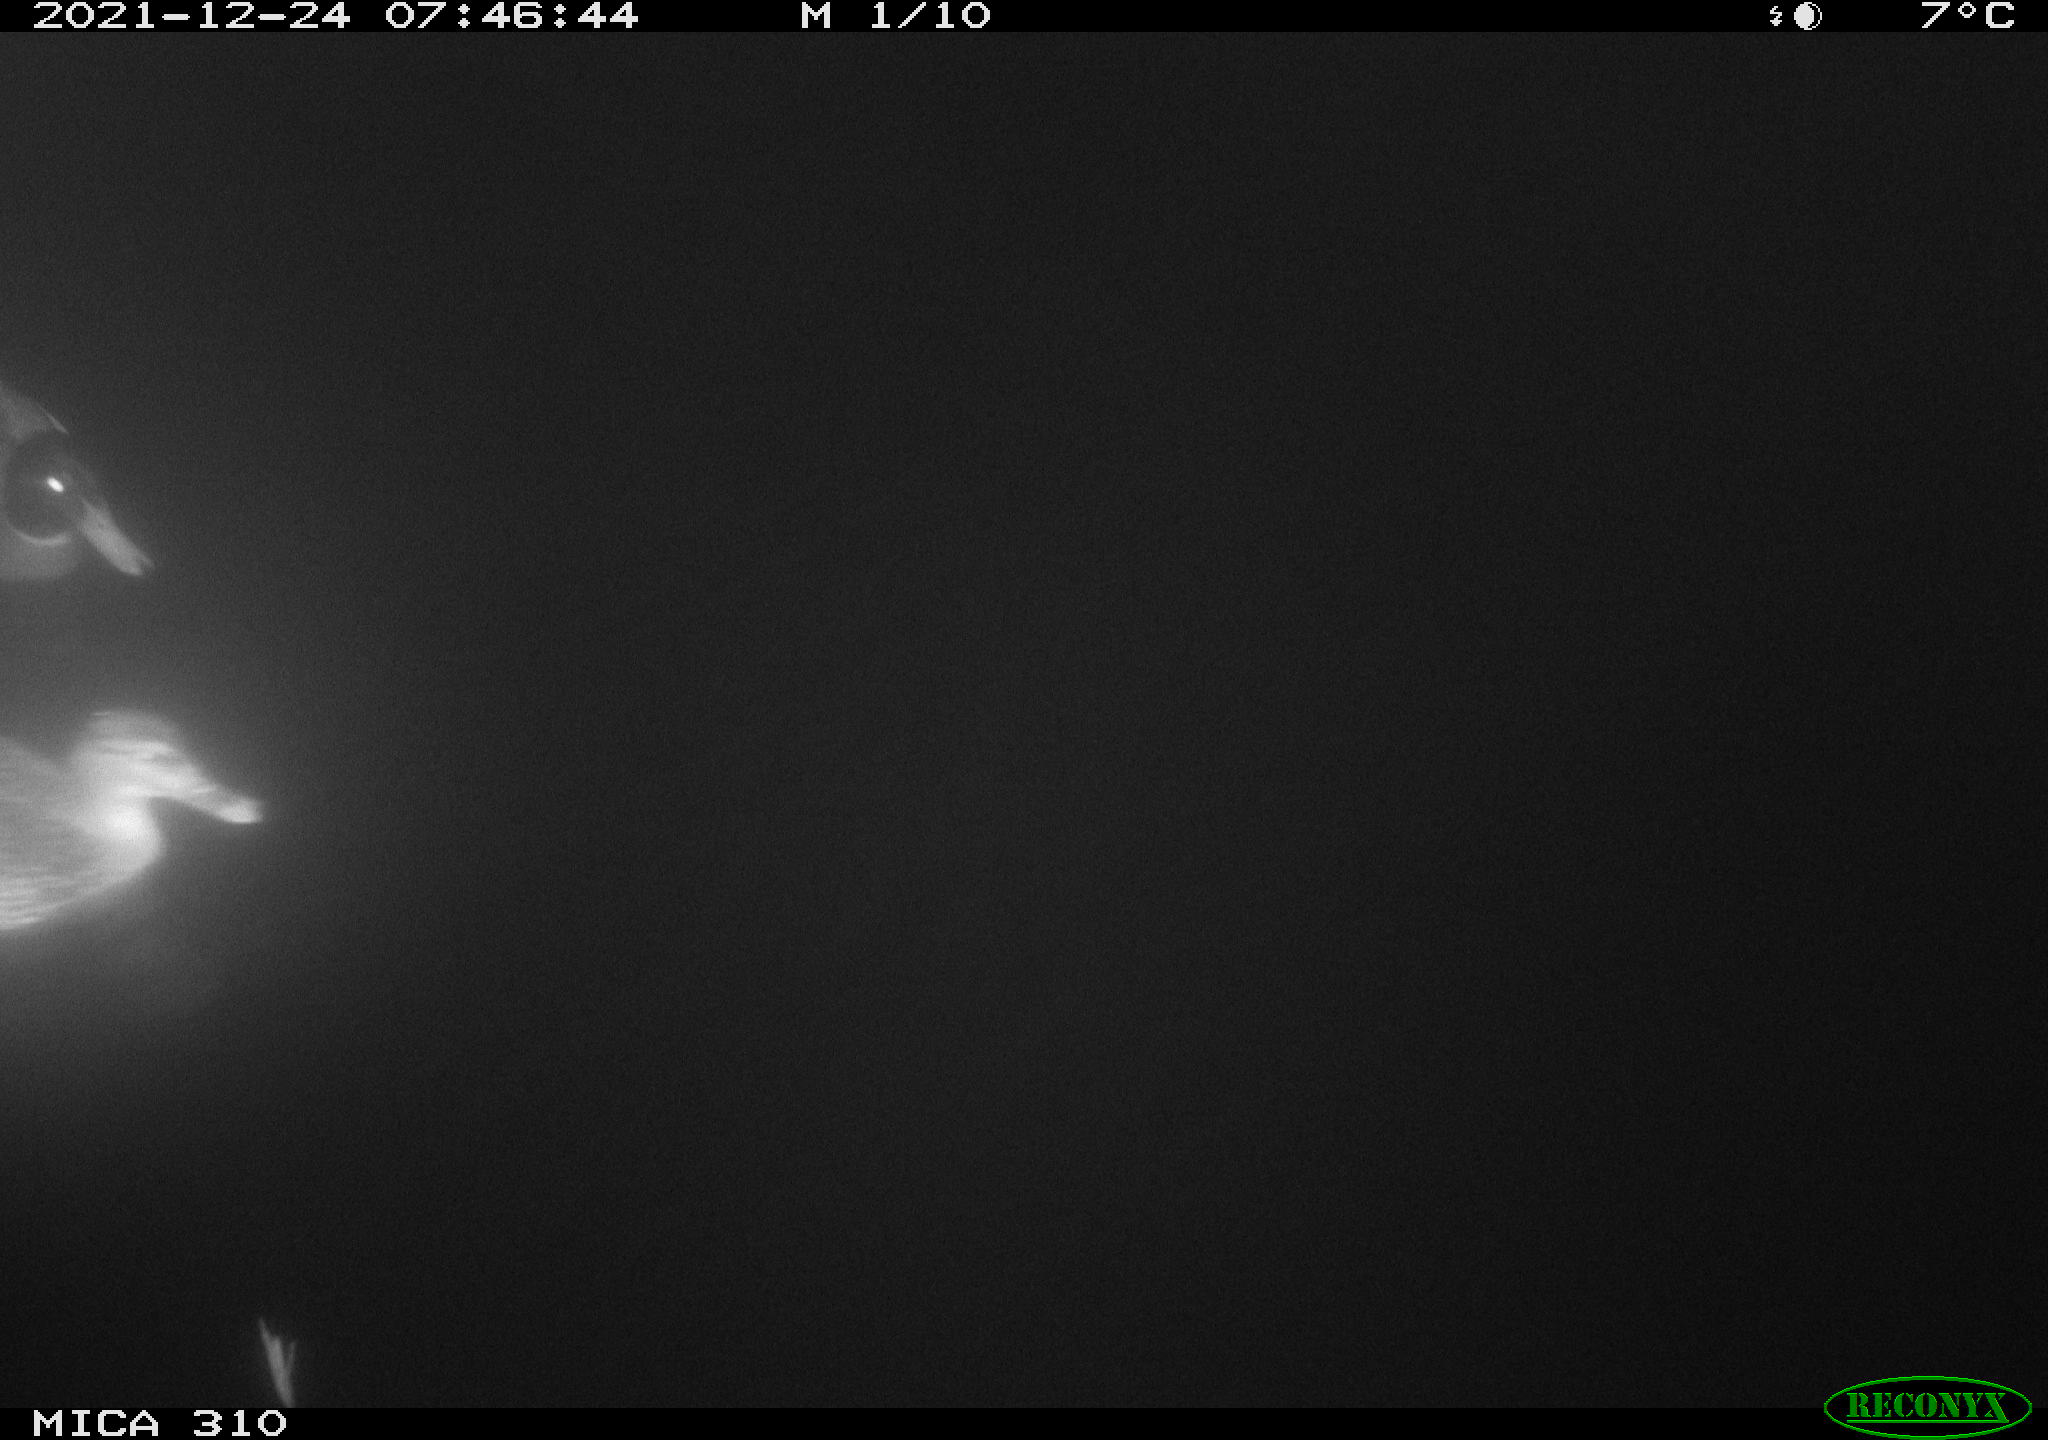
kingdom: Animalia
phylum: Chordata
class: Aves
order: Anseriformes
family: Anatidae
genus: Anas
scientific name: Anas platyrhynchos
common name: Mallard
